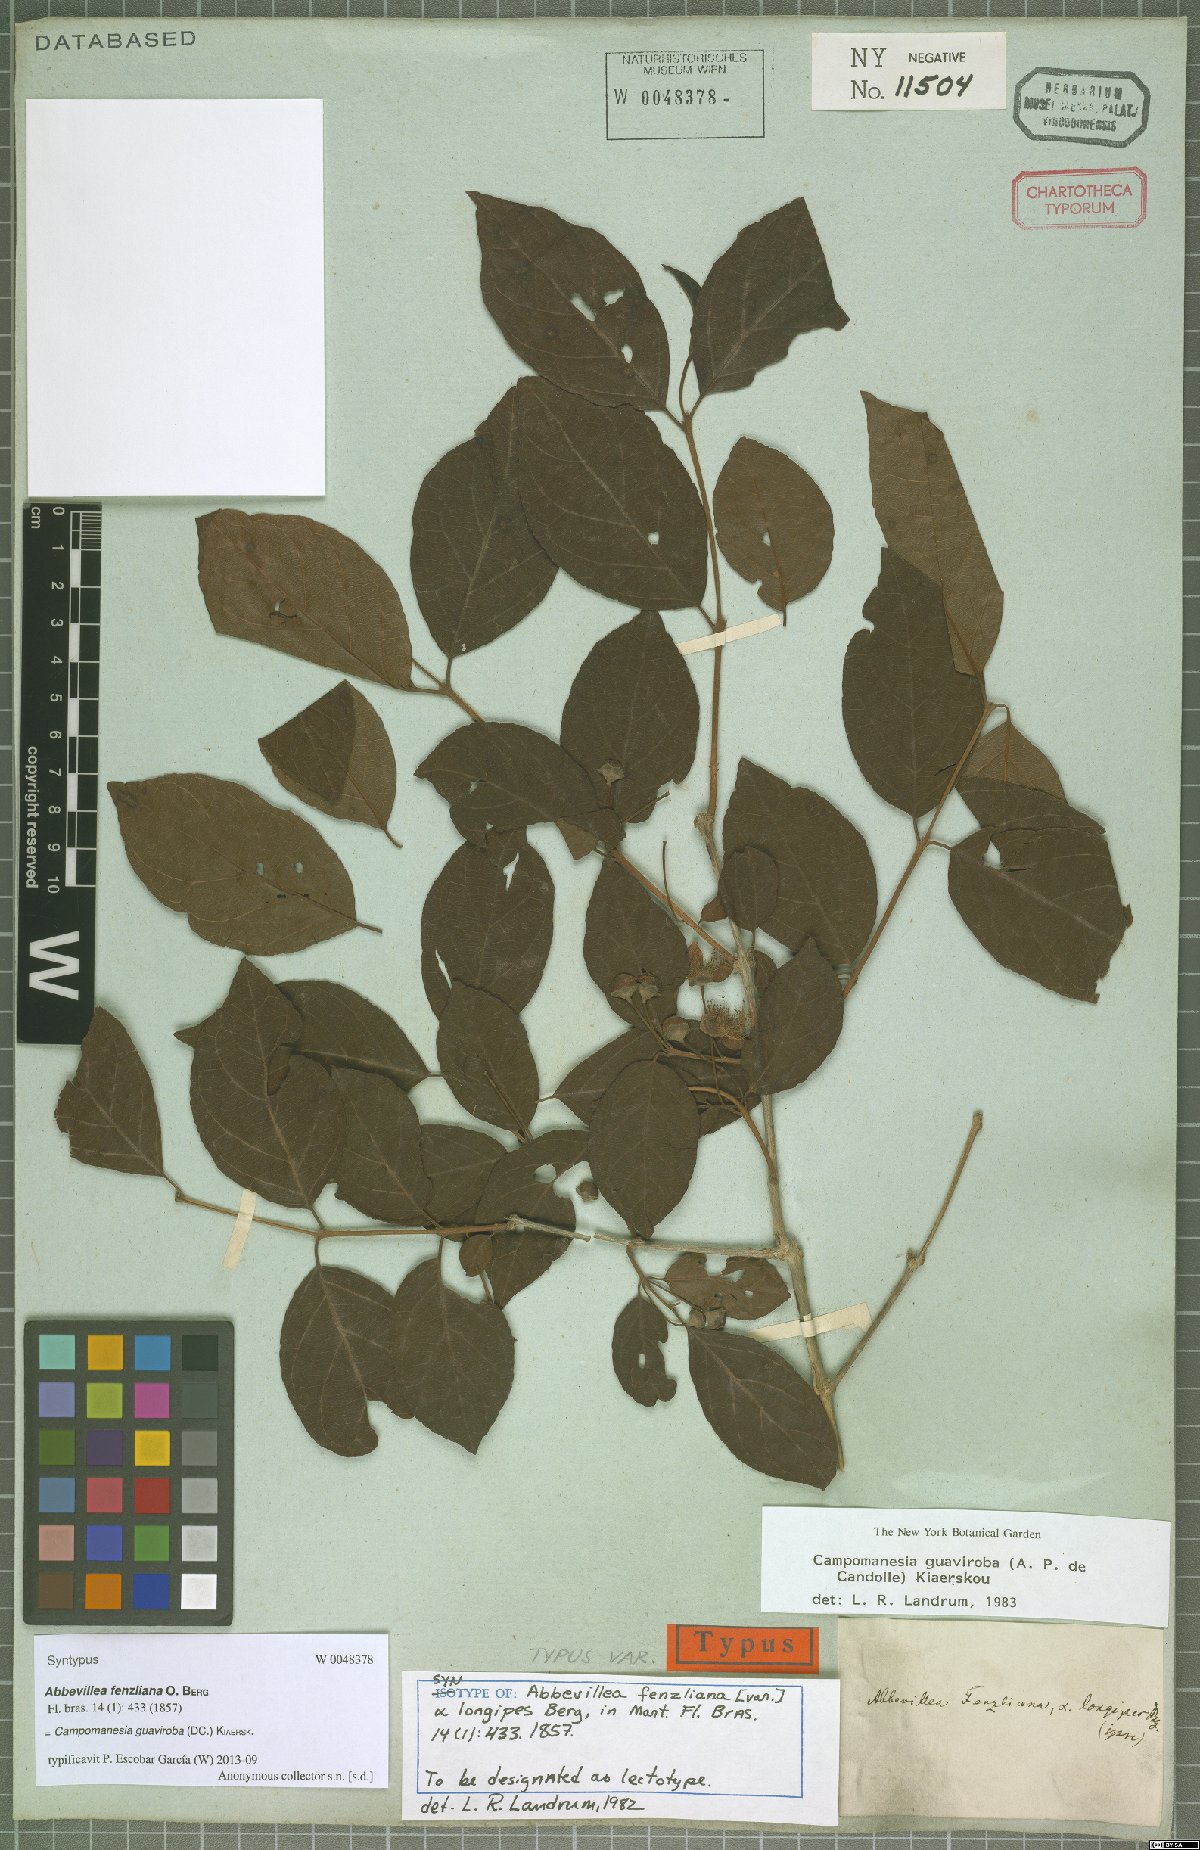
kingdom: Plantae
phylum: Tracheophyta
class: Magnoliopsida
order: Myrtales
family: Myrtaceae
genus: Campomanesia
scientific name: Campomanesia guaviroba
